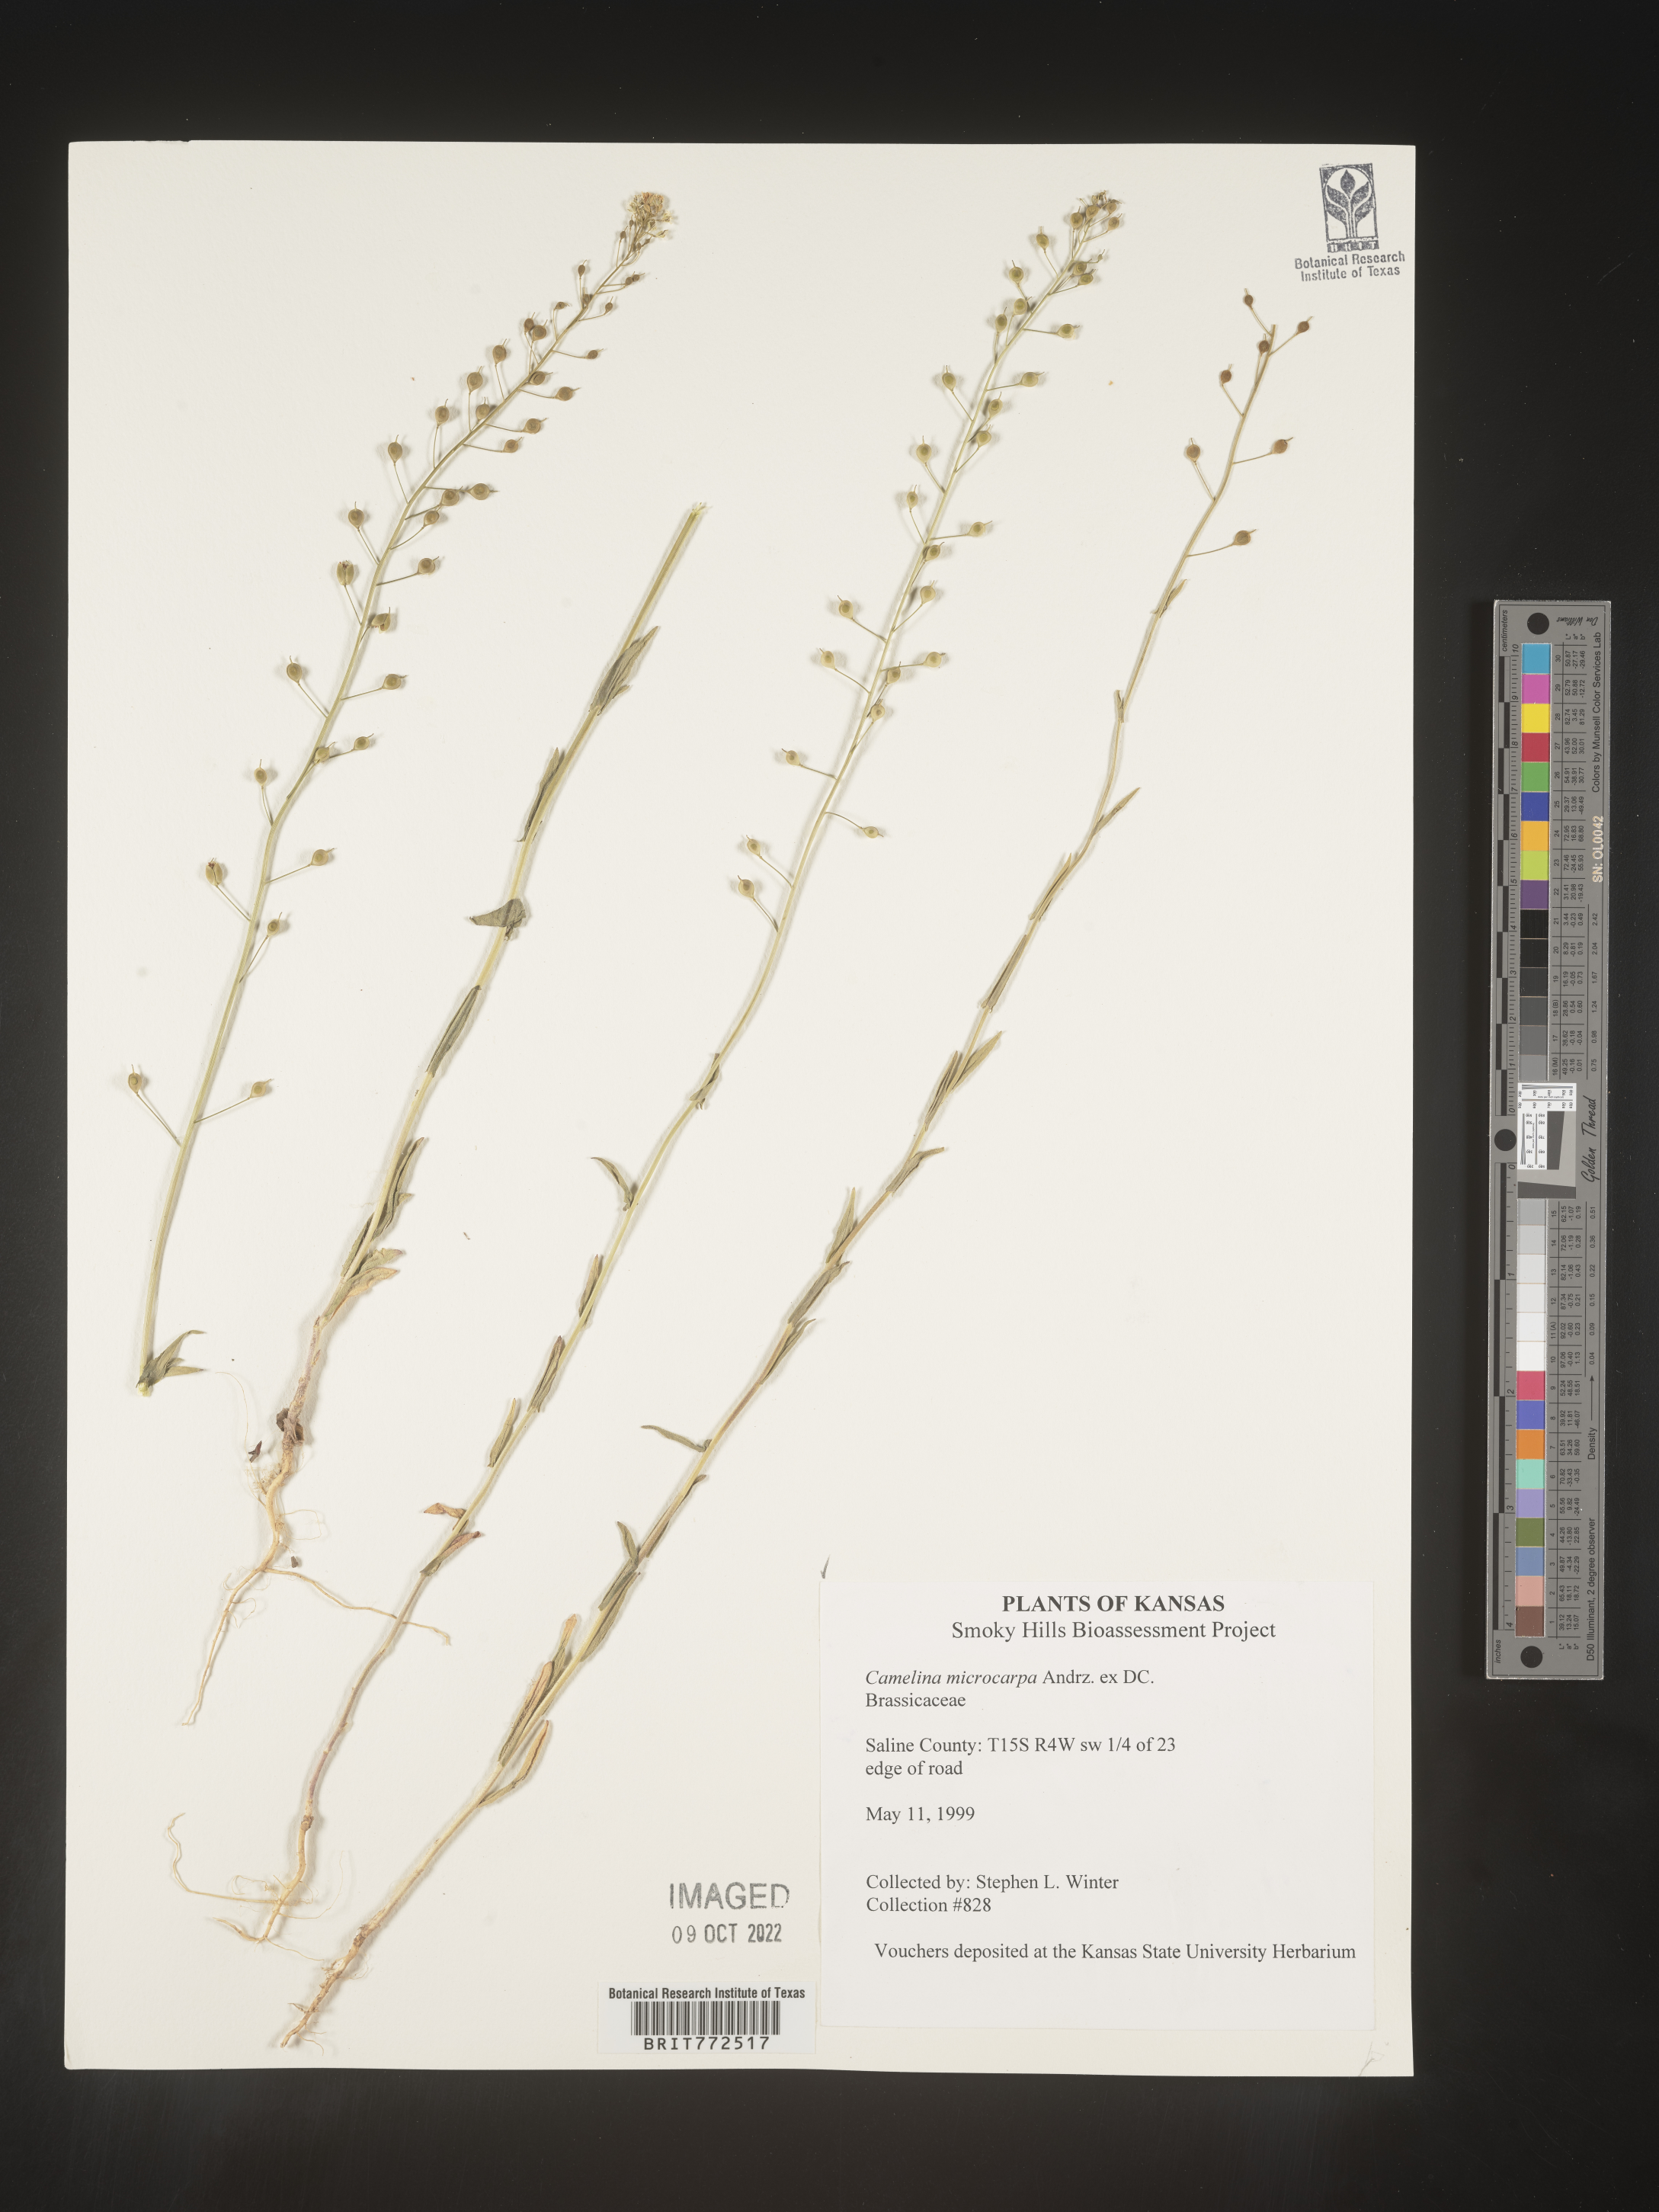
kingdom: Plantae
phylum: Tracheophyta
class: Magnoliopsida
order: Brassicales
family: Brassicaceae
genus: Camelina
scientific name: Camelina microcarpa
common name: Lesser gold-of-pleasure
